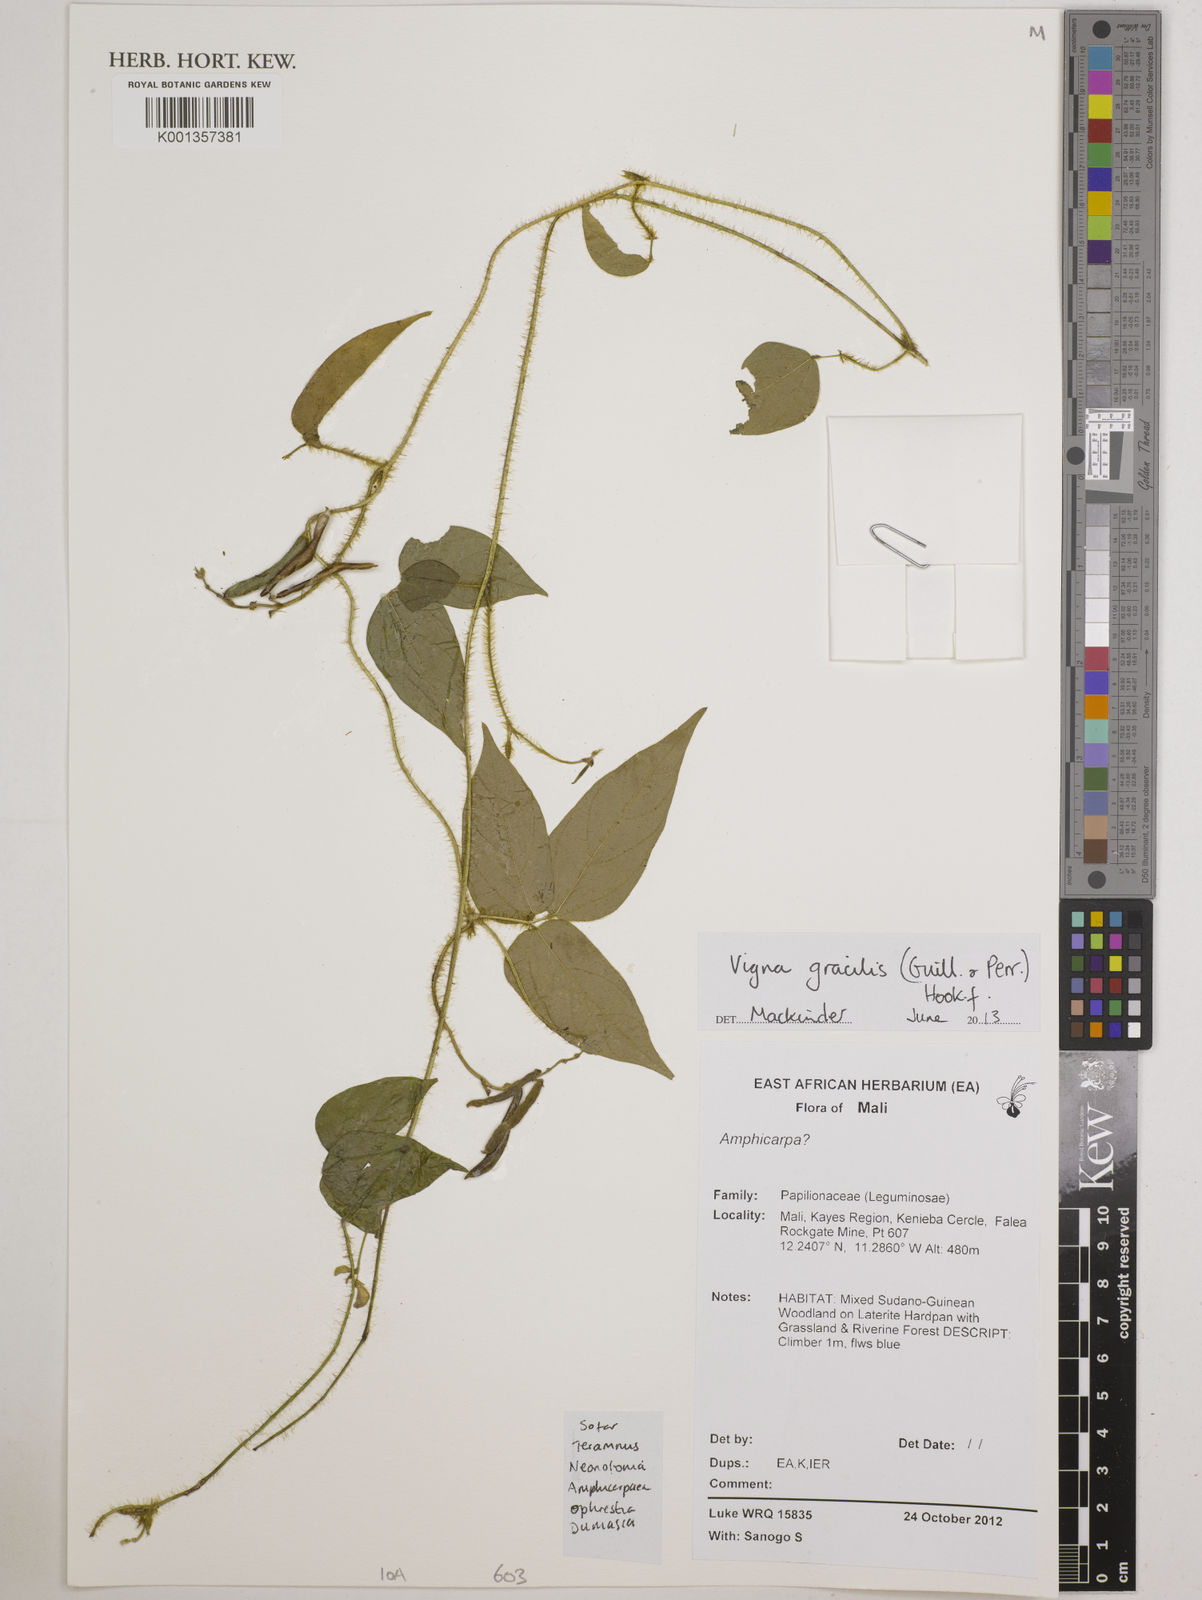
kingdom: Plantae
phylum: Tracheophyta
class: Magnoliopsida
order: Fabales
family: Fabaceae
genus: Vigna
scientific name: Vigna gracilis
